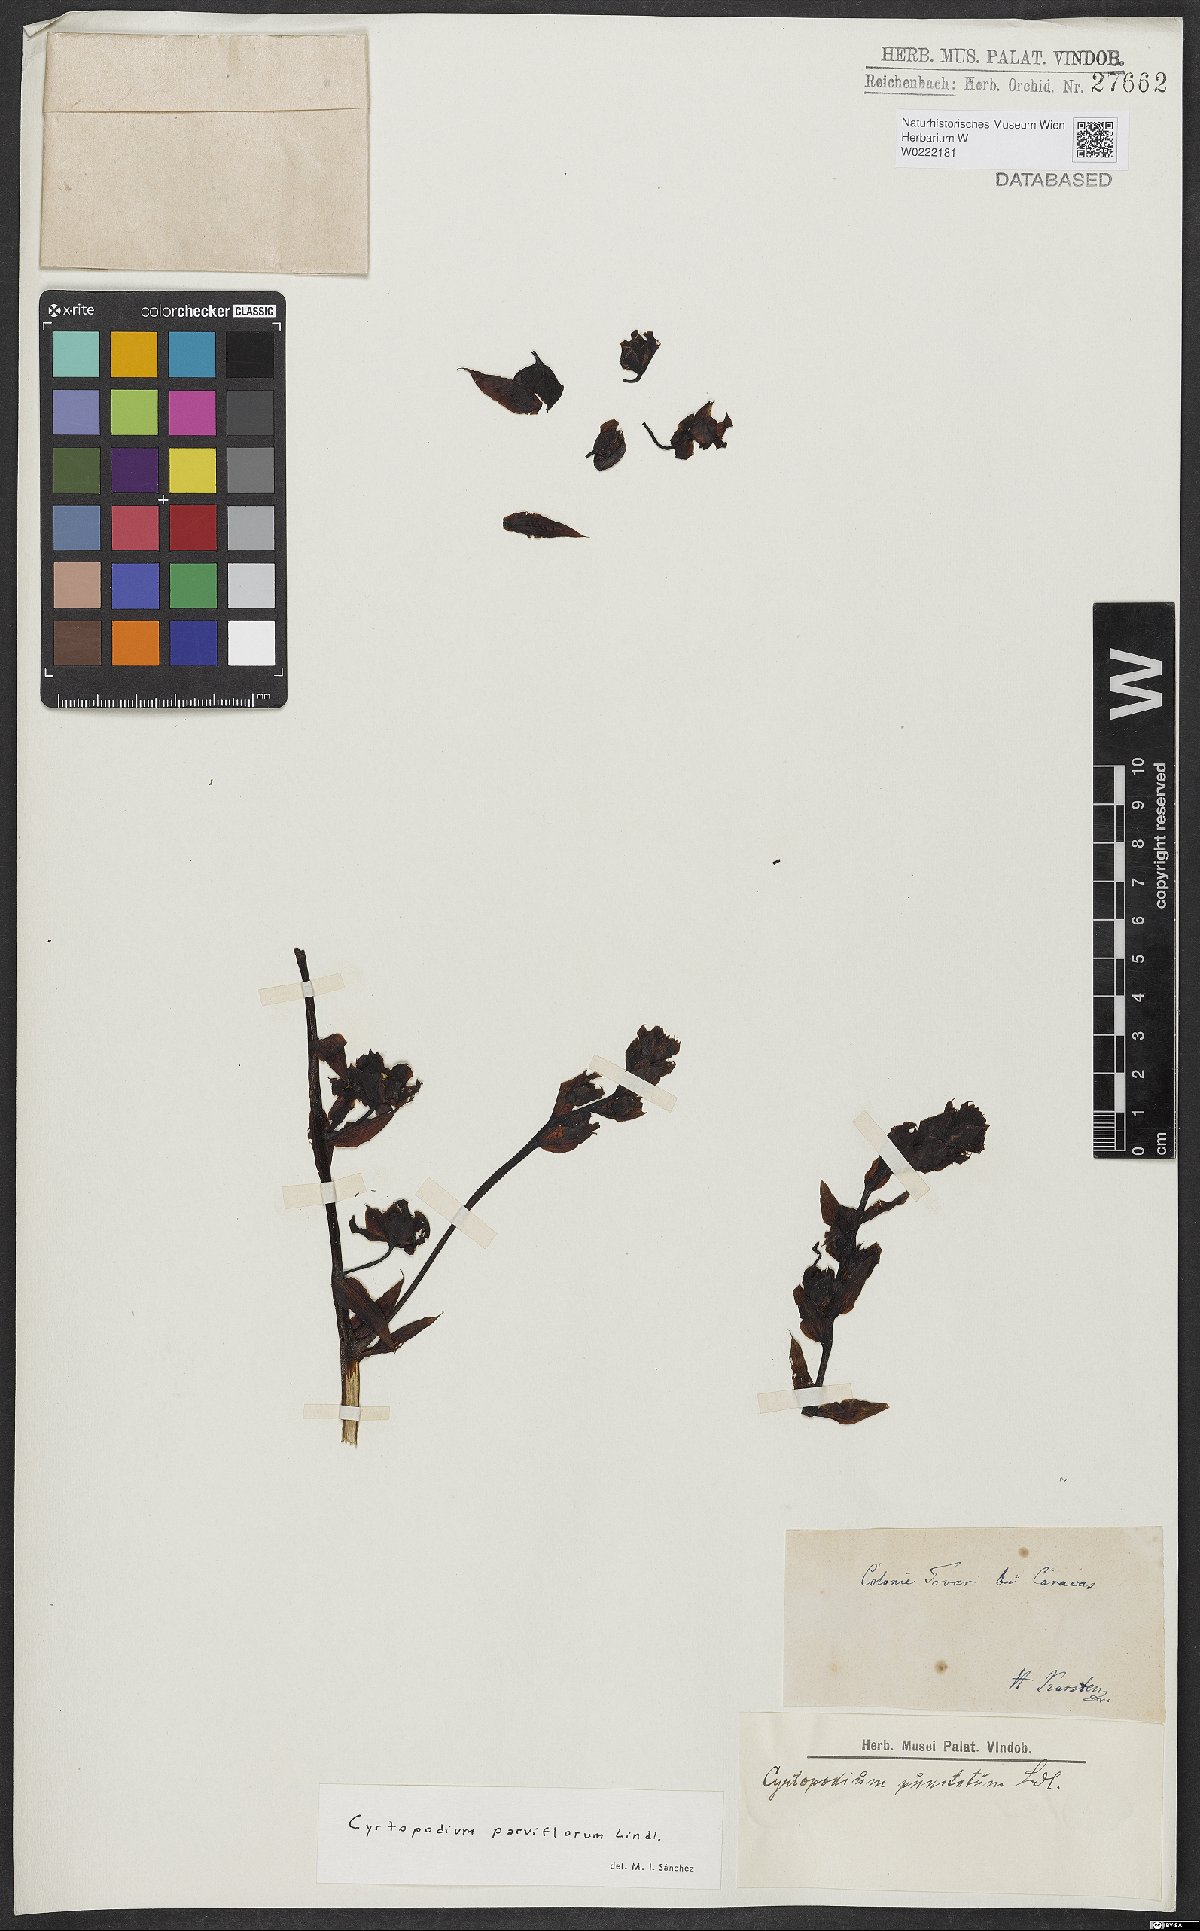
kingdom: Plantae
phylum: Tracheophyta
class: Liliopsida
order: Asparagales
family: Orchidaceae
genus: Cyrtopodium
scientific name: Cyrtopodium parviflorum
